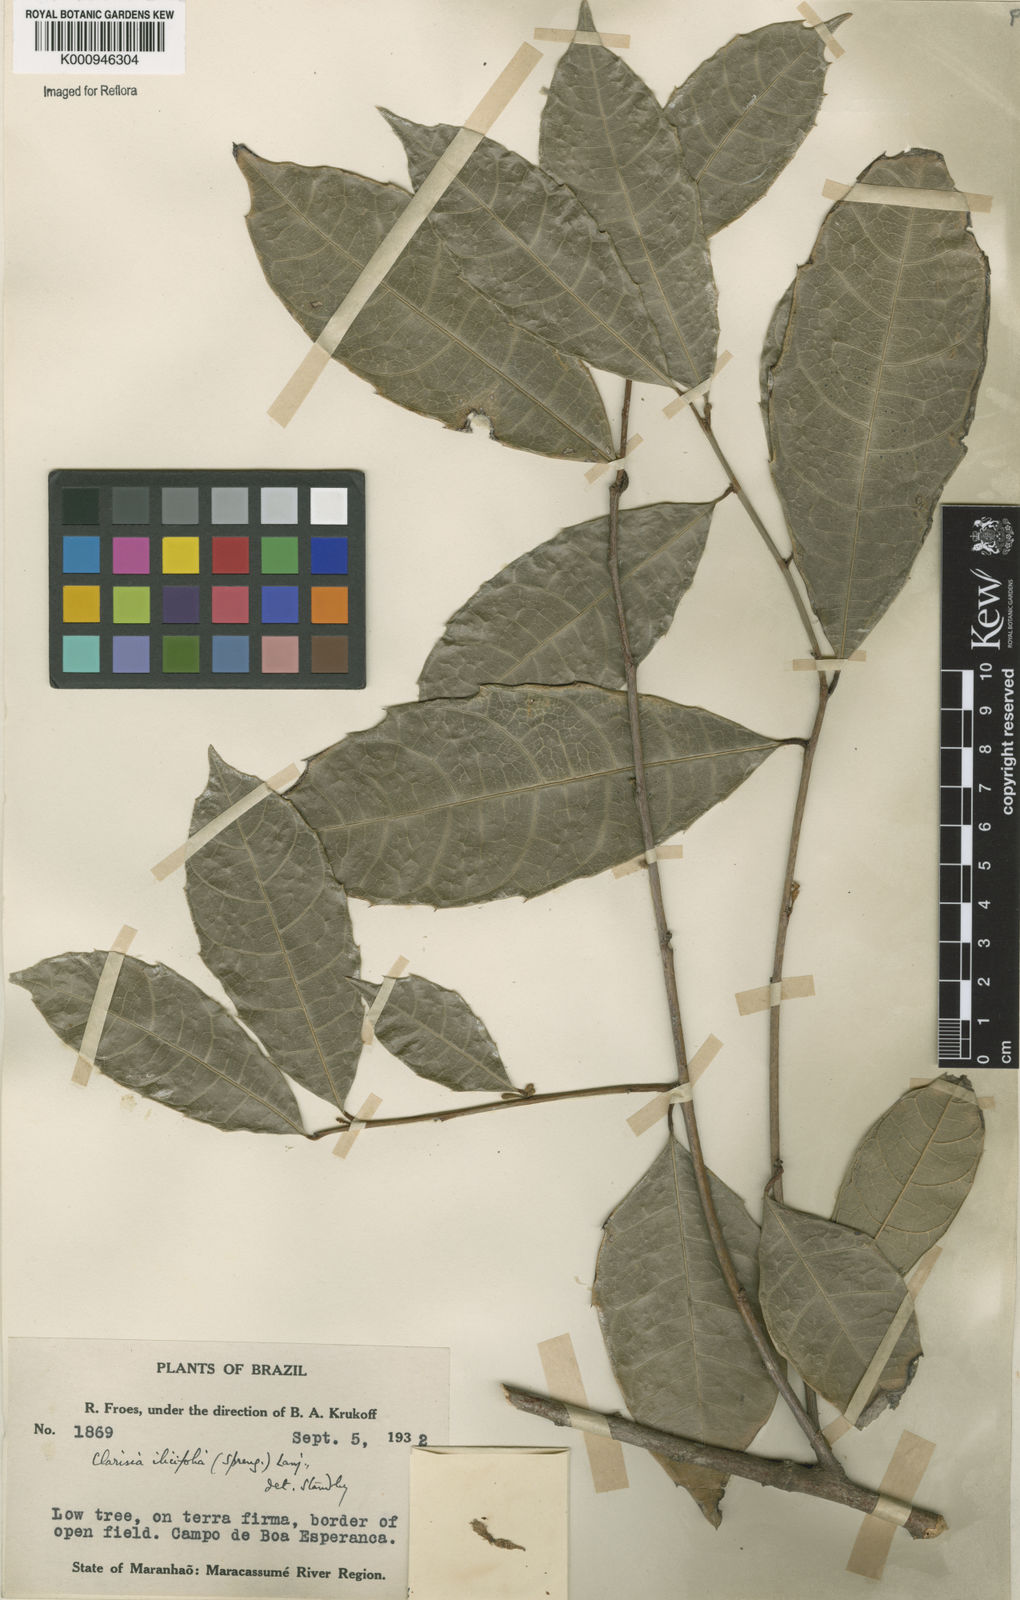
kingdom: Plantae
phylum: Tracheophyta
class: Magnoliopsida
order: Rosales
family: Moraceae
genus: Clarisia
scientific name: Clarisia ilicifolia
